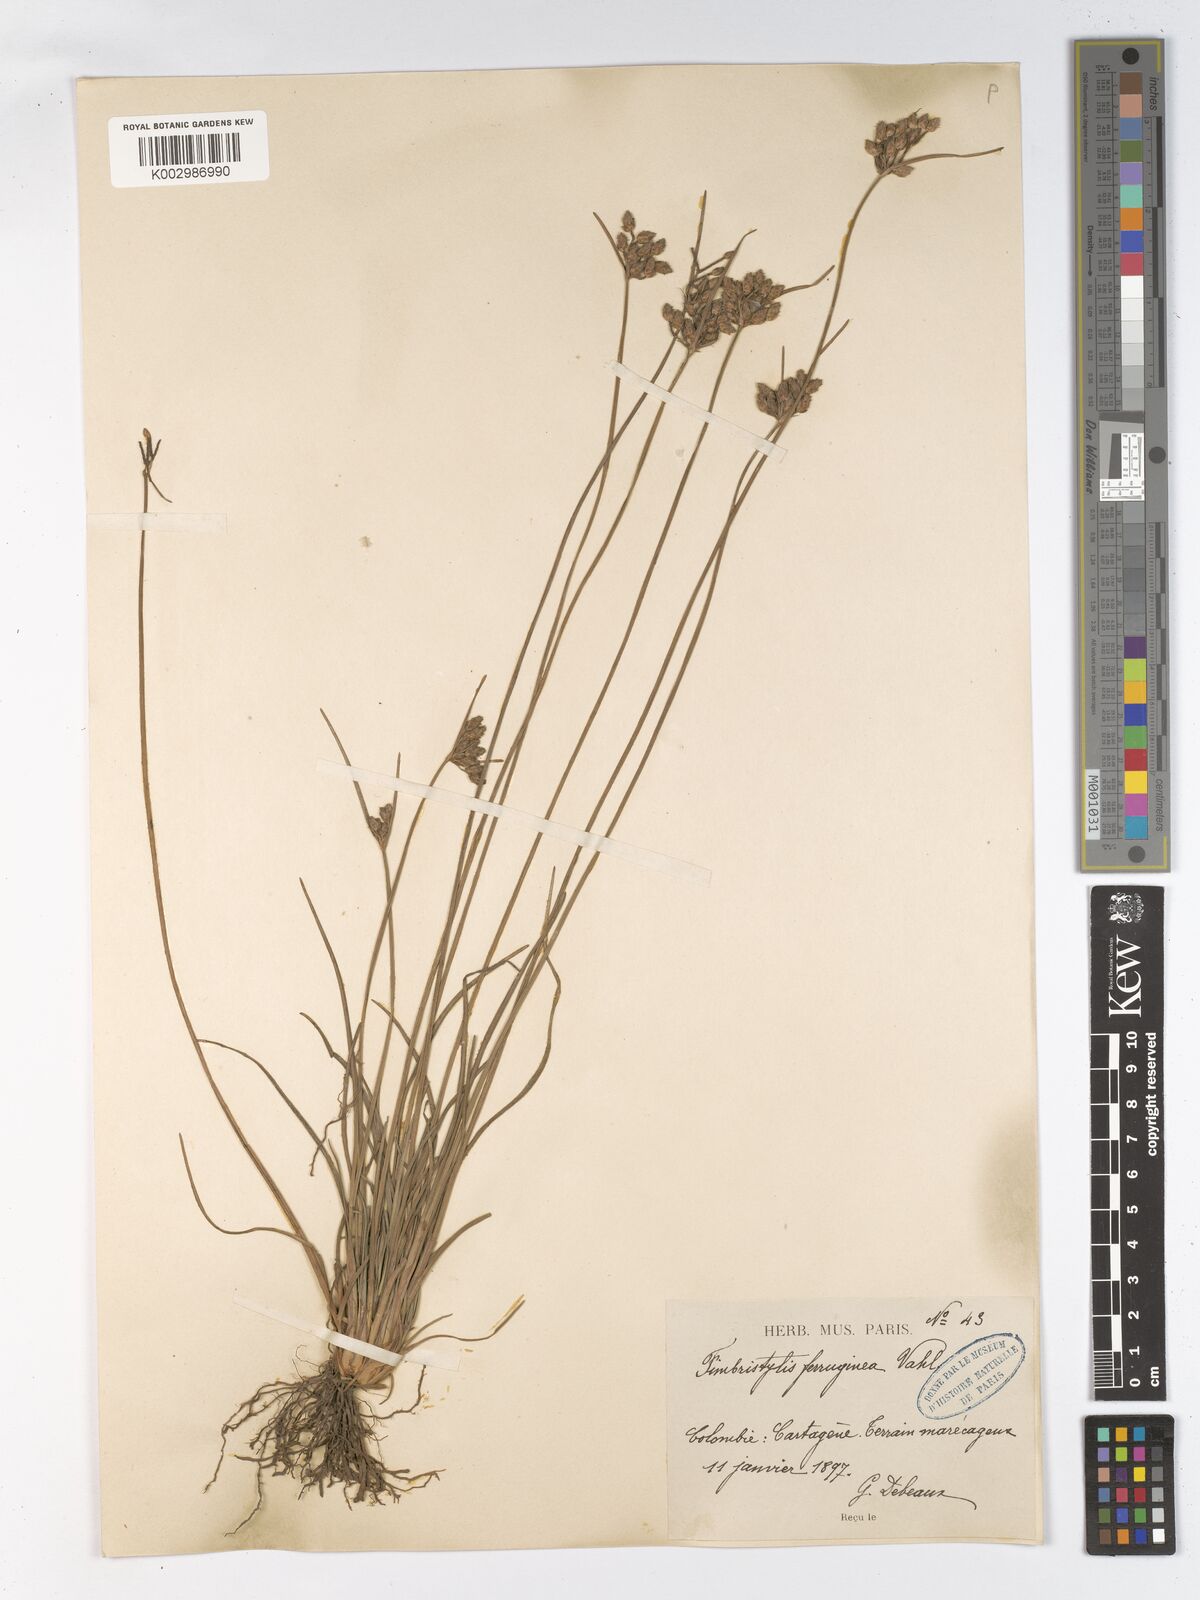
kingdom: Plantae
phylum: Tracheophyta
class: Liliopsida
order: Poales
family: Cyperaceae
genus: Fimbristylis
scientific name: Fimbristylis ferruginea
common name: West indian fimbry
